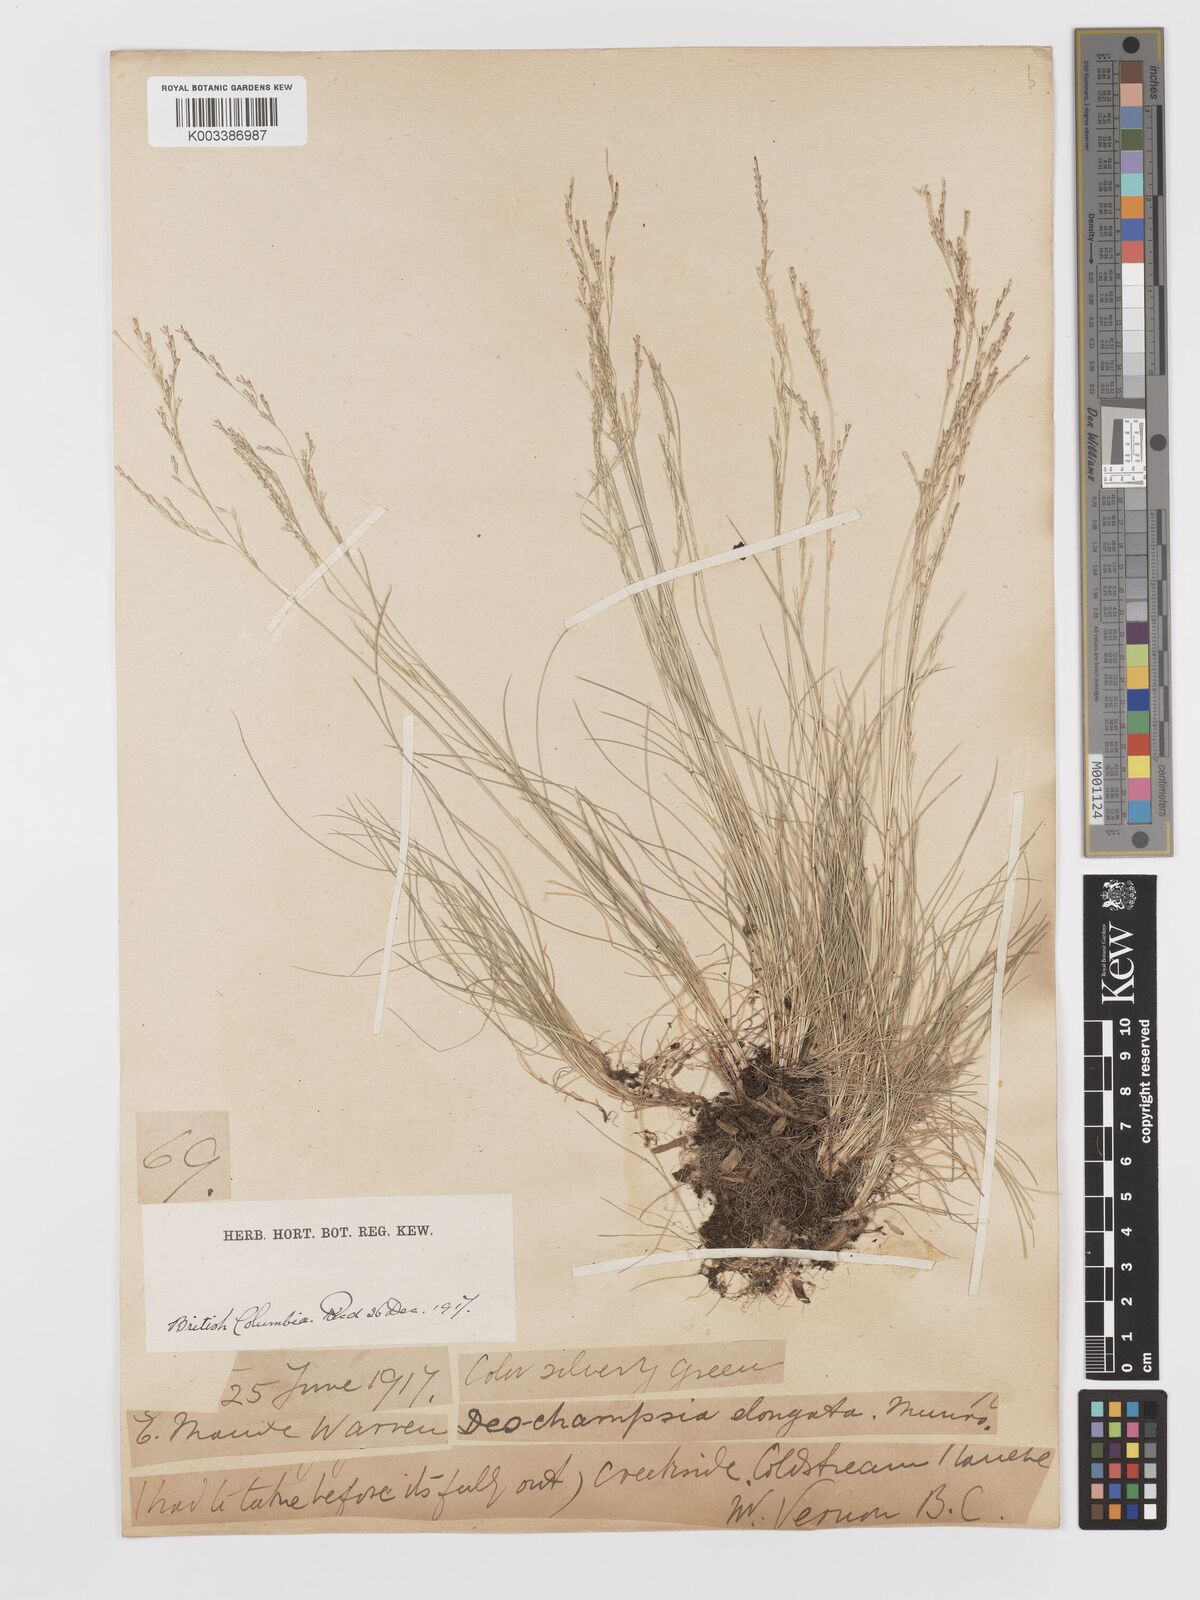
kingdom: Plantae
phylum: Tracheophyta
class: Liliopsida
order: Poales
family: Poaceae
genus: Deschampsia
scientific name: Deschampsia elongata
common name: Slender hairgrass
